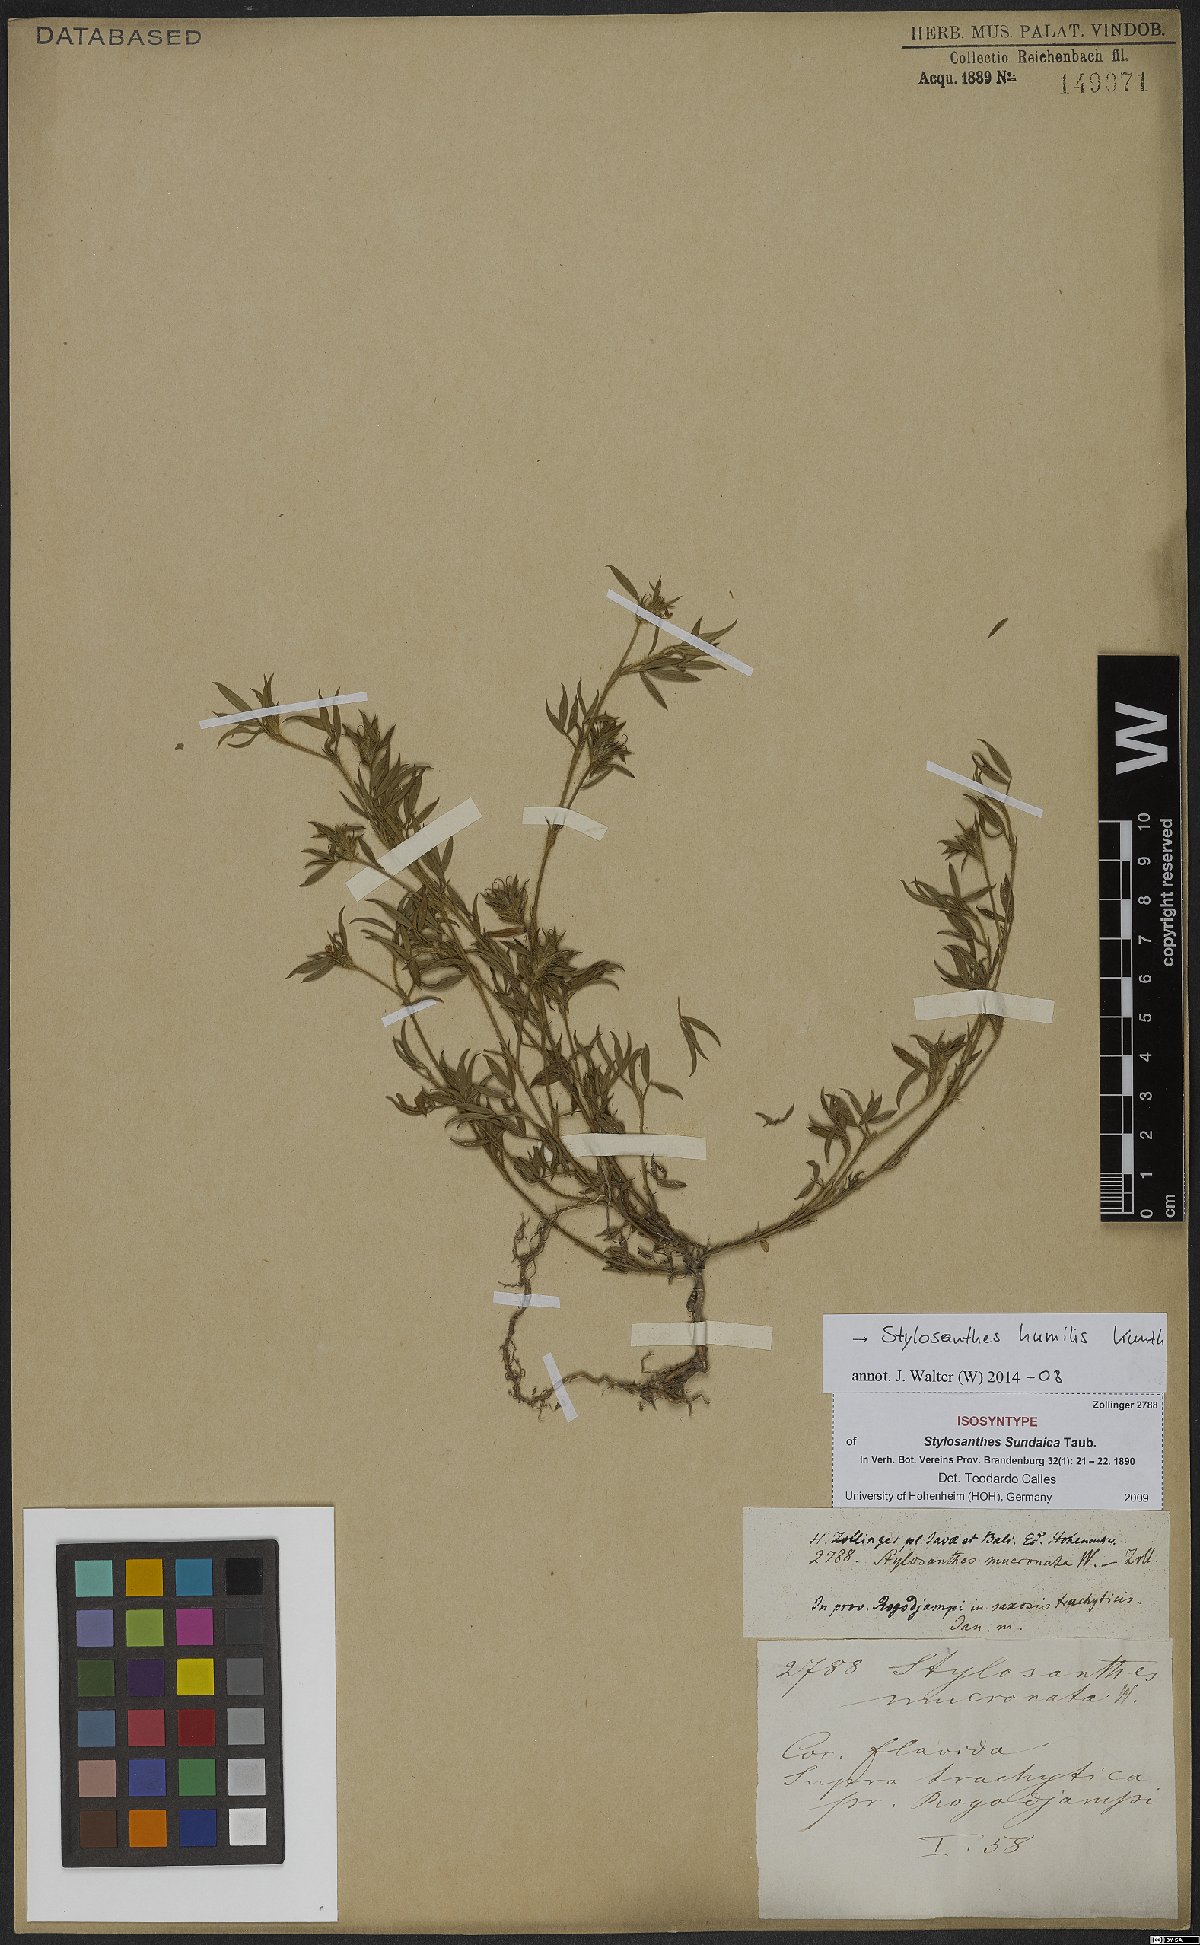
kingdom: Plantae
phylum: Tracheophyta
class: Magnoliopsida
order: Fabales
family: Fabaceae
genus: Stylosanthes
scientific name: Stylosanthes humilis
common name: Townsville stylo
